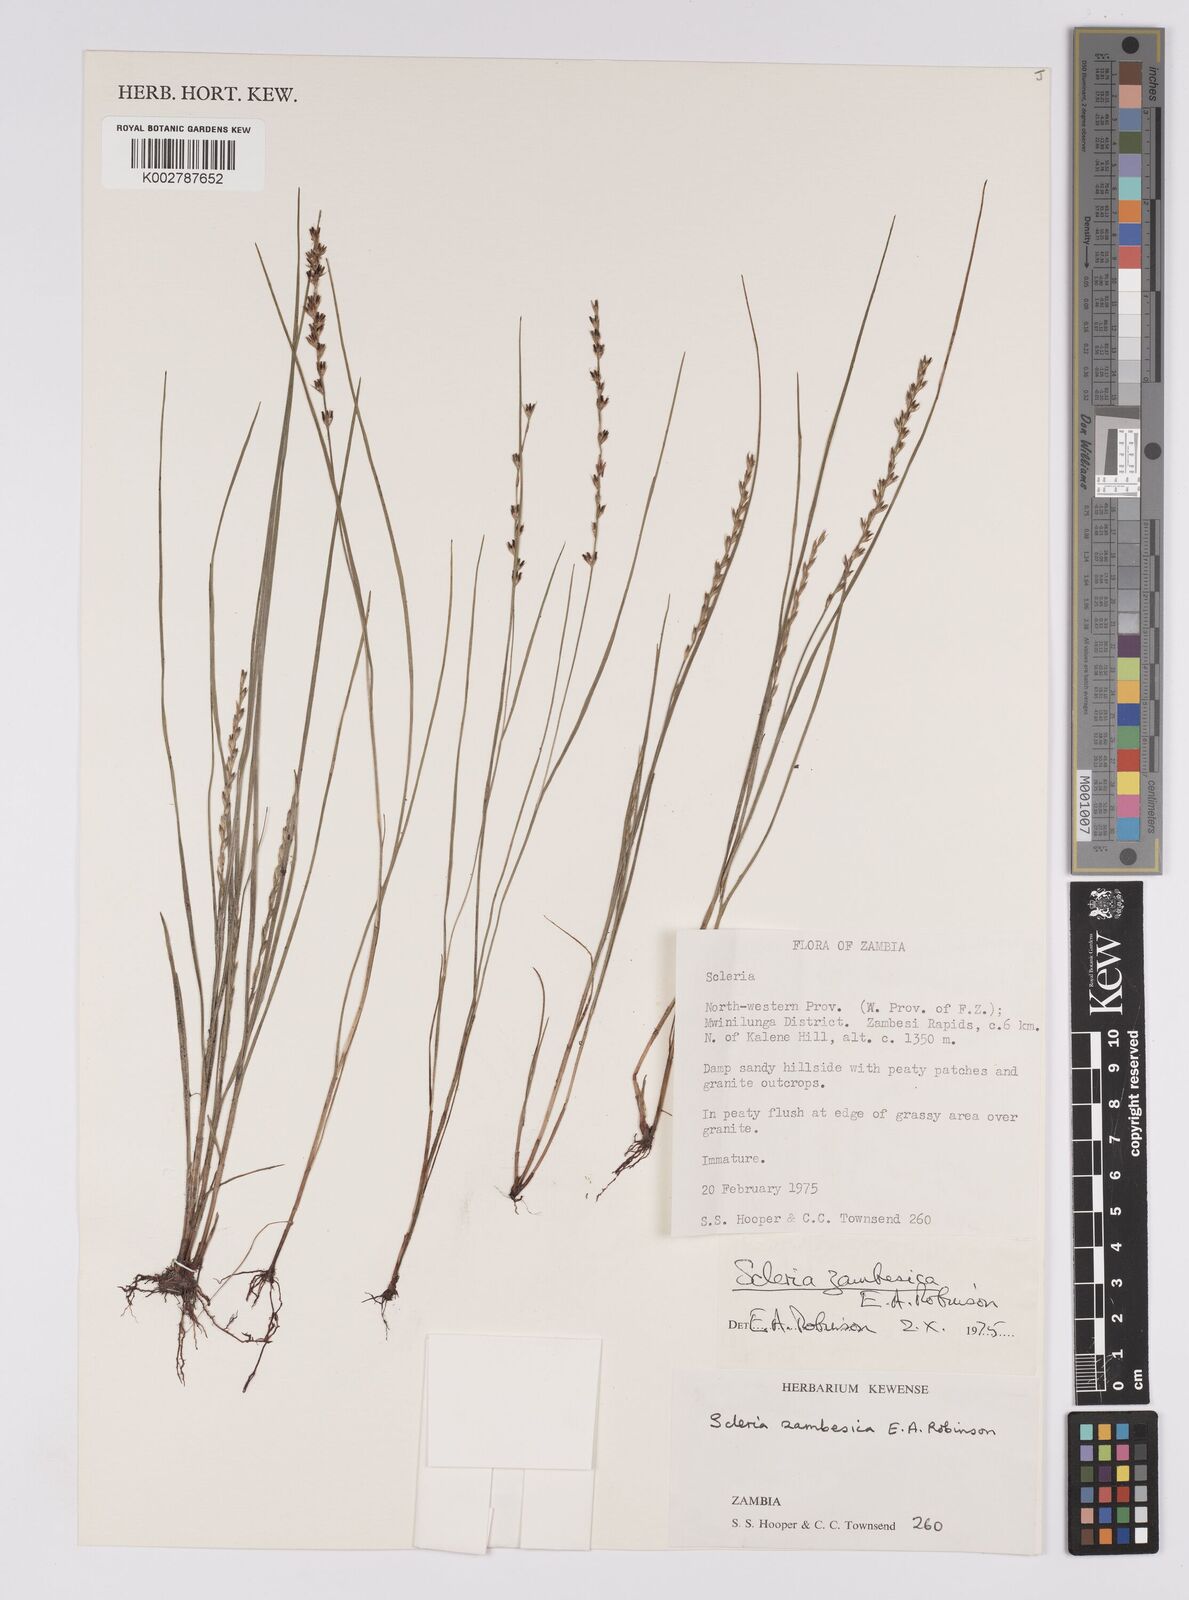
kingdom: Plantae
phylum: Tracheophyta
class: Liliopsida
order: Poales
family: Cyperaceae
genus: Scleria
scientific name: Scleria zambesica
